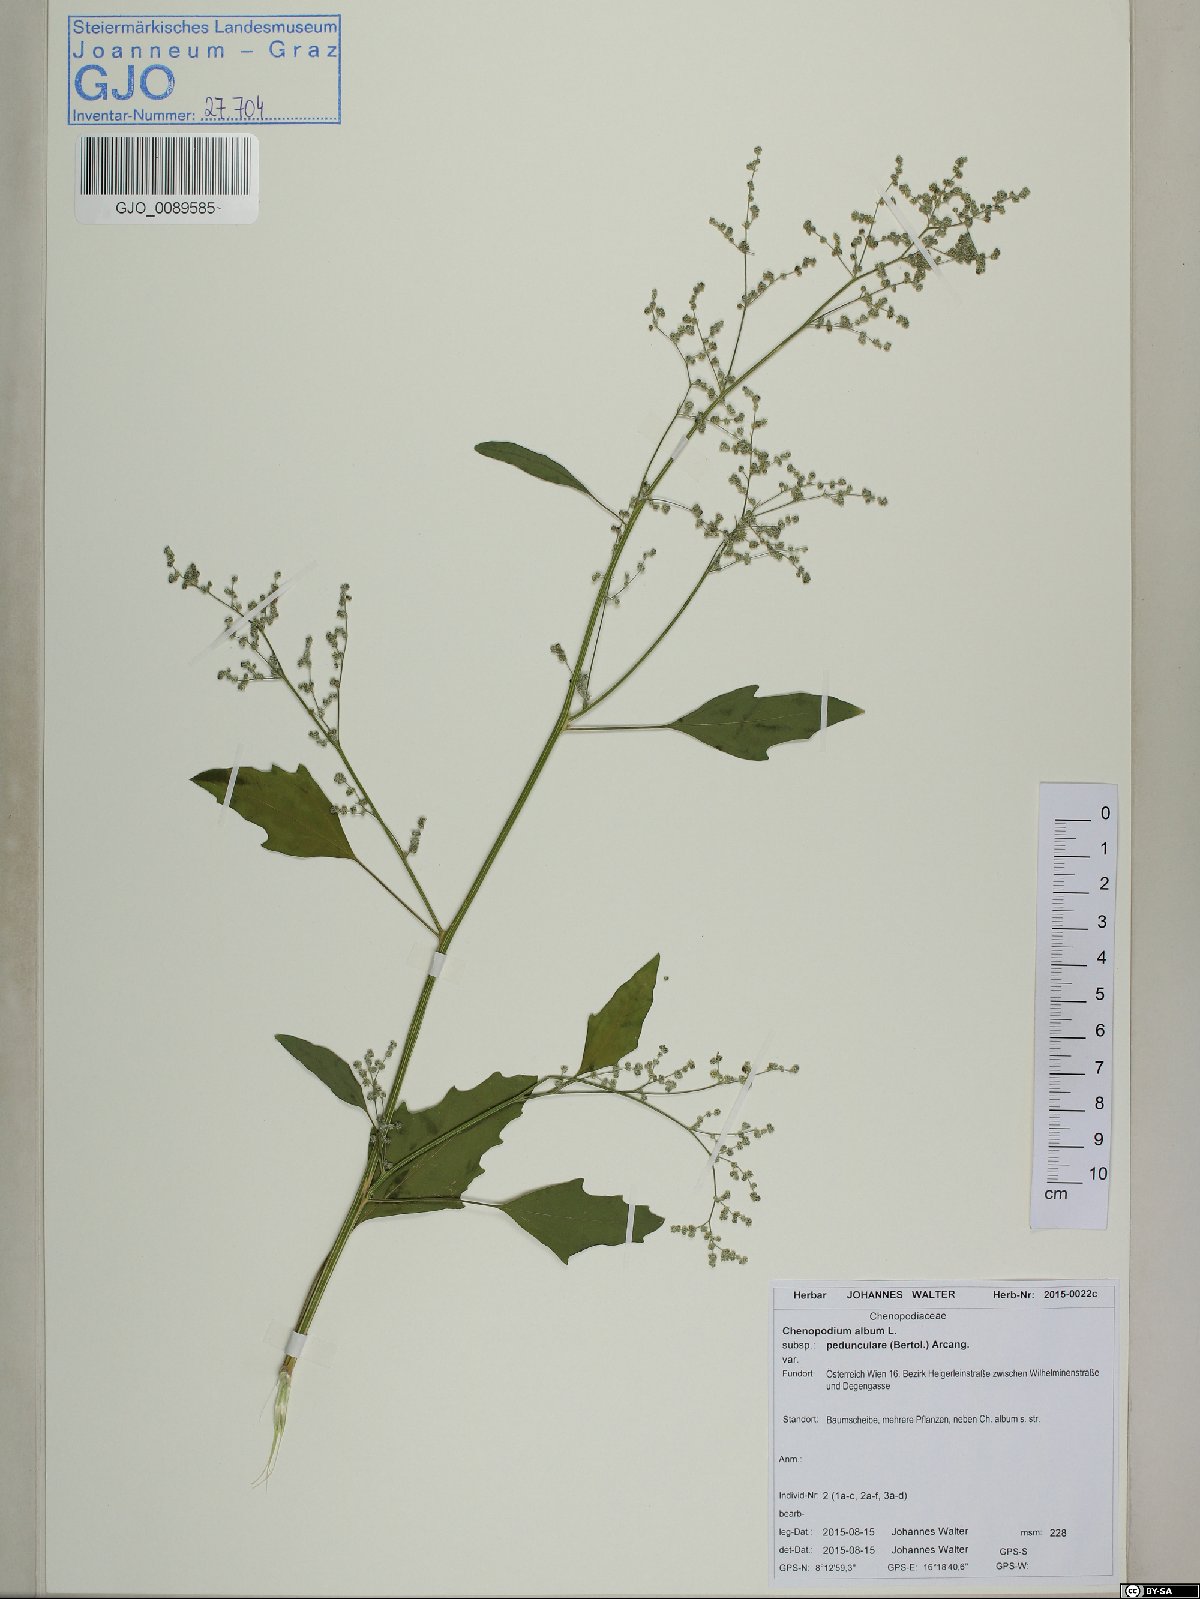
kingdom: Plantae
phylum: Tracheophyta
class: Magnoliopsida
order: Caryophyllales
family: Amaranthaceae
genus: Chenopodium
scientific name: Chenopodium album
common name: Fat-hen
